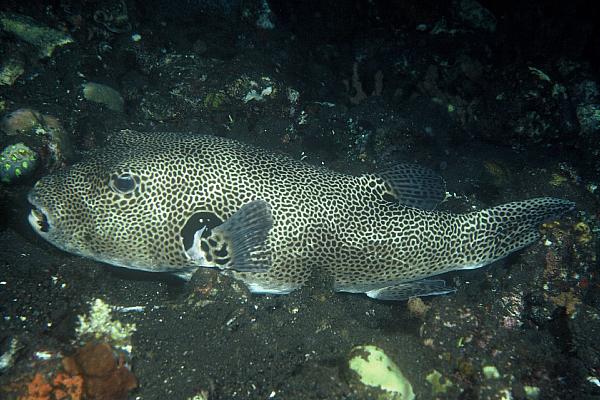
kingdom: Animalia
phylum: Chordata
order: Tetraodontiformes
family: Tetraodontidae
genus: Arothron
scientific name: Arothron stellatus
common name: Star blaasop
